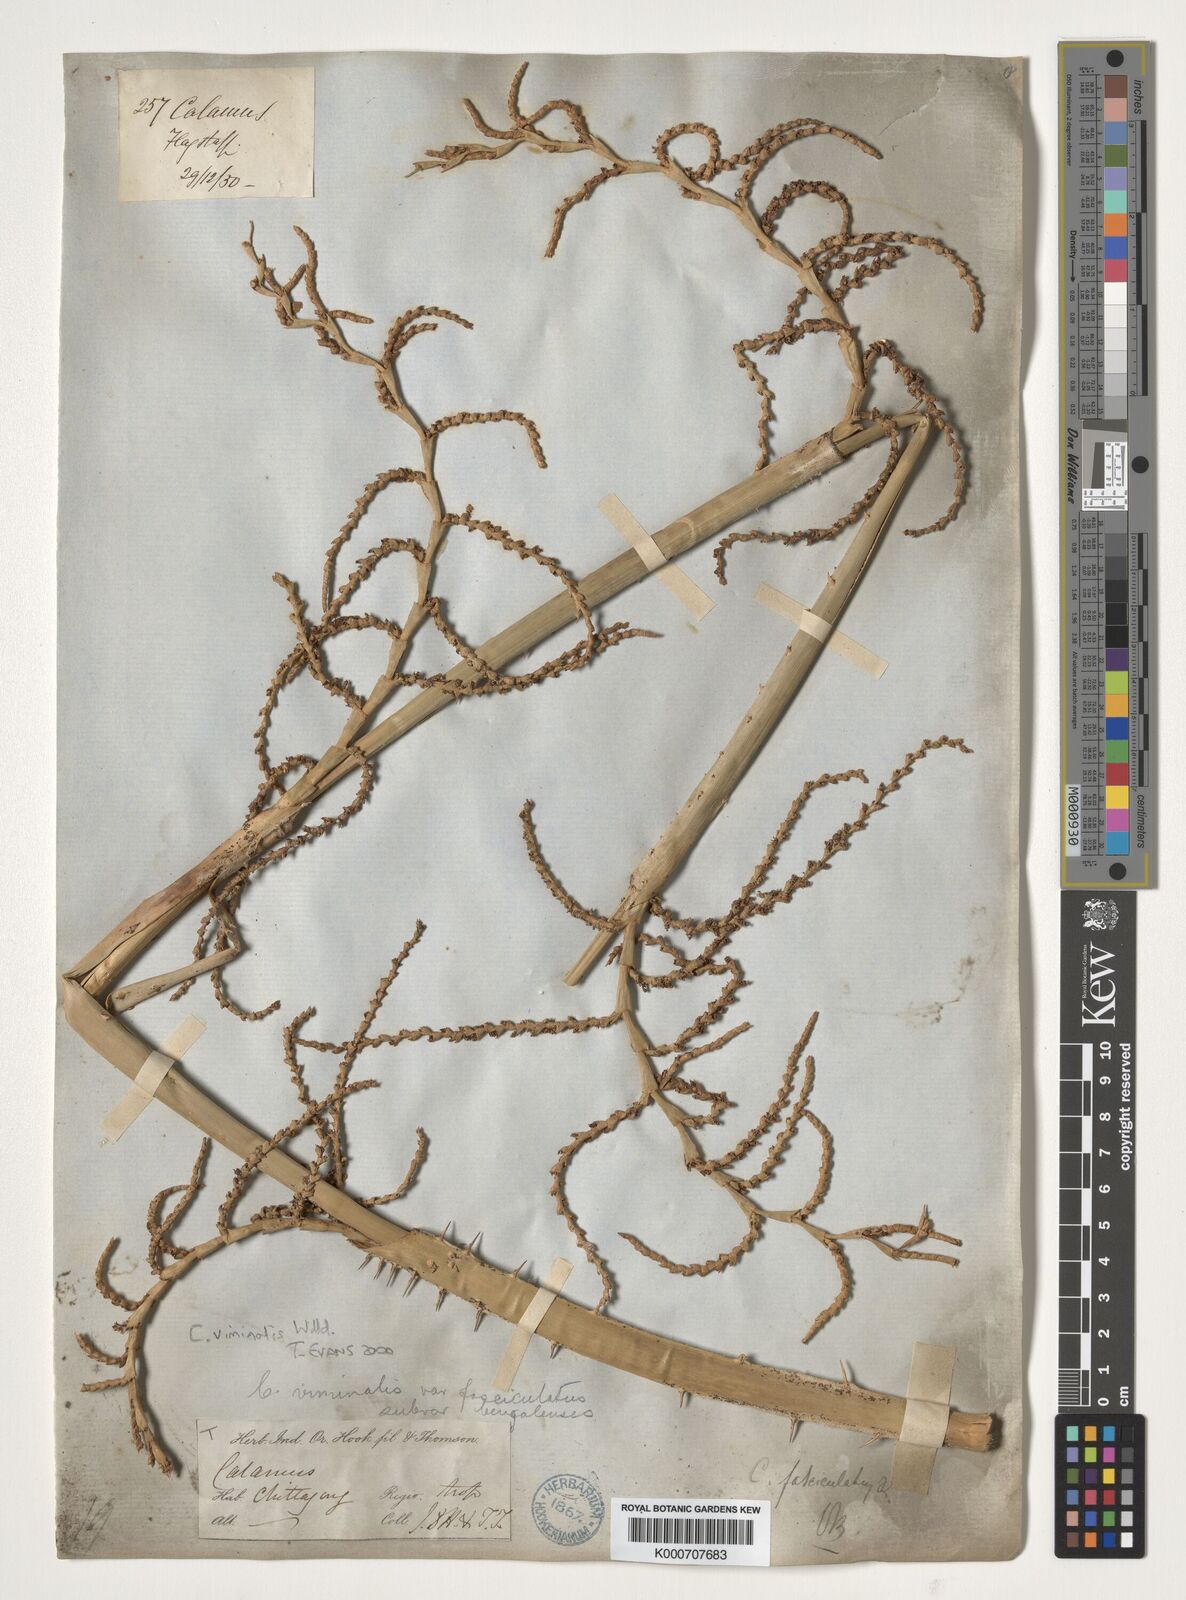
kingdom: Plantae
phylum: Tracheophyta
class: Liliopsida
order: Arecales
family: Arecaceae
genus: Calamus
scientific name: Calamus viminalis
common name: Osier-like rattan palm
